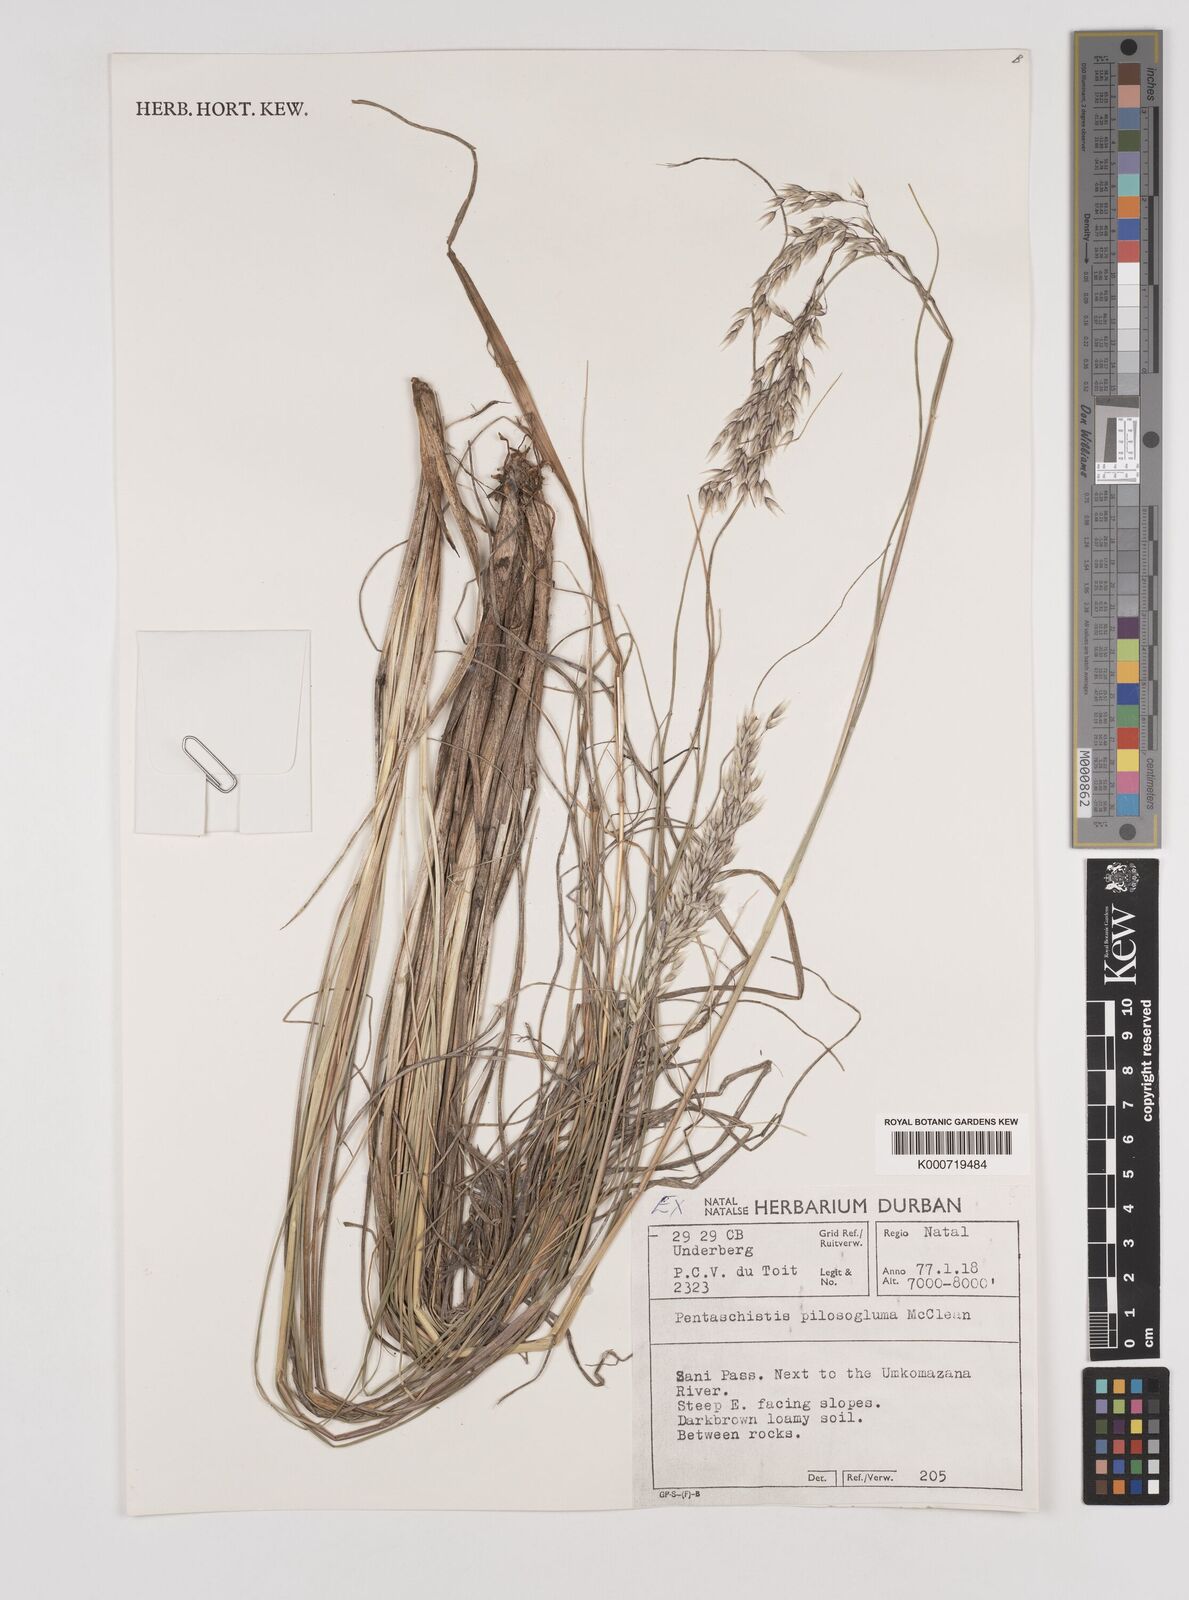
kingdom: Plantae
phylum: Tracheophyta
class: Liliopsida
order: Poales
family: Poaceae
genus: Pentameris
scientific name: Pentameris aurea
